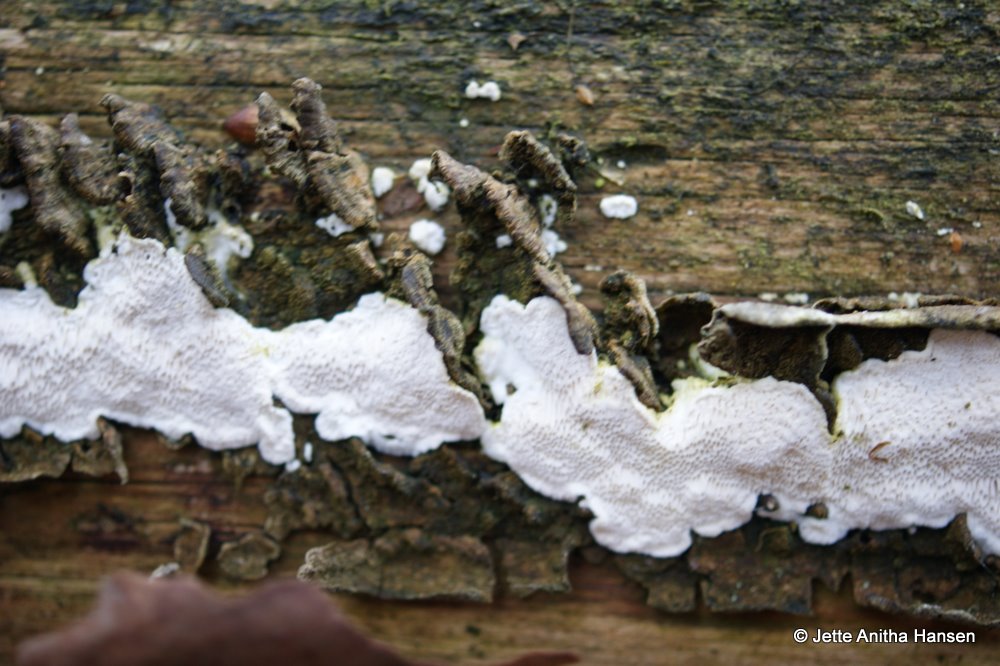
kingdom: Fungi
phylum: Basidiomycota
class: Agaricomycetes
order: Polyporales
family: Fomitopsidaceae
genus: Antrodia
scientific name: Antrodia sinuosa
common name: tømmer-sejporesvamp
